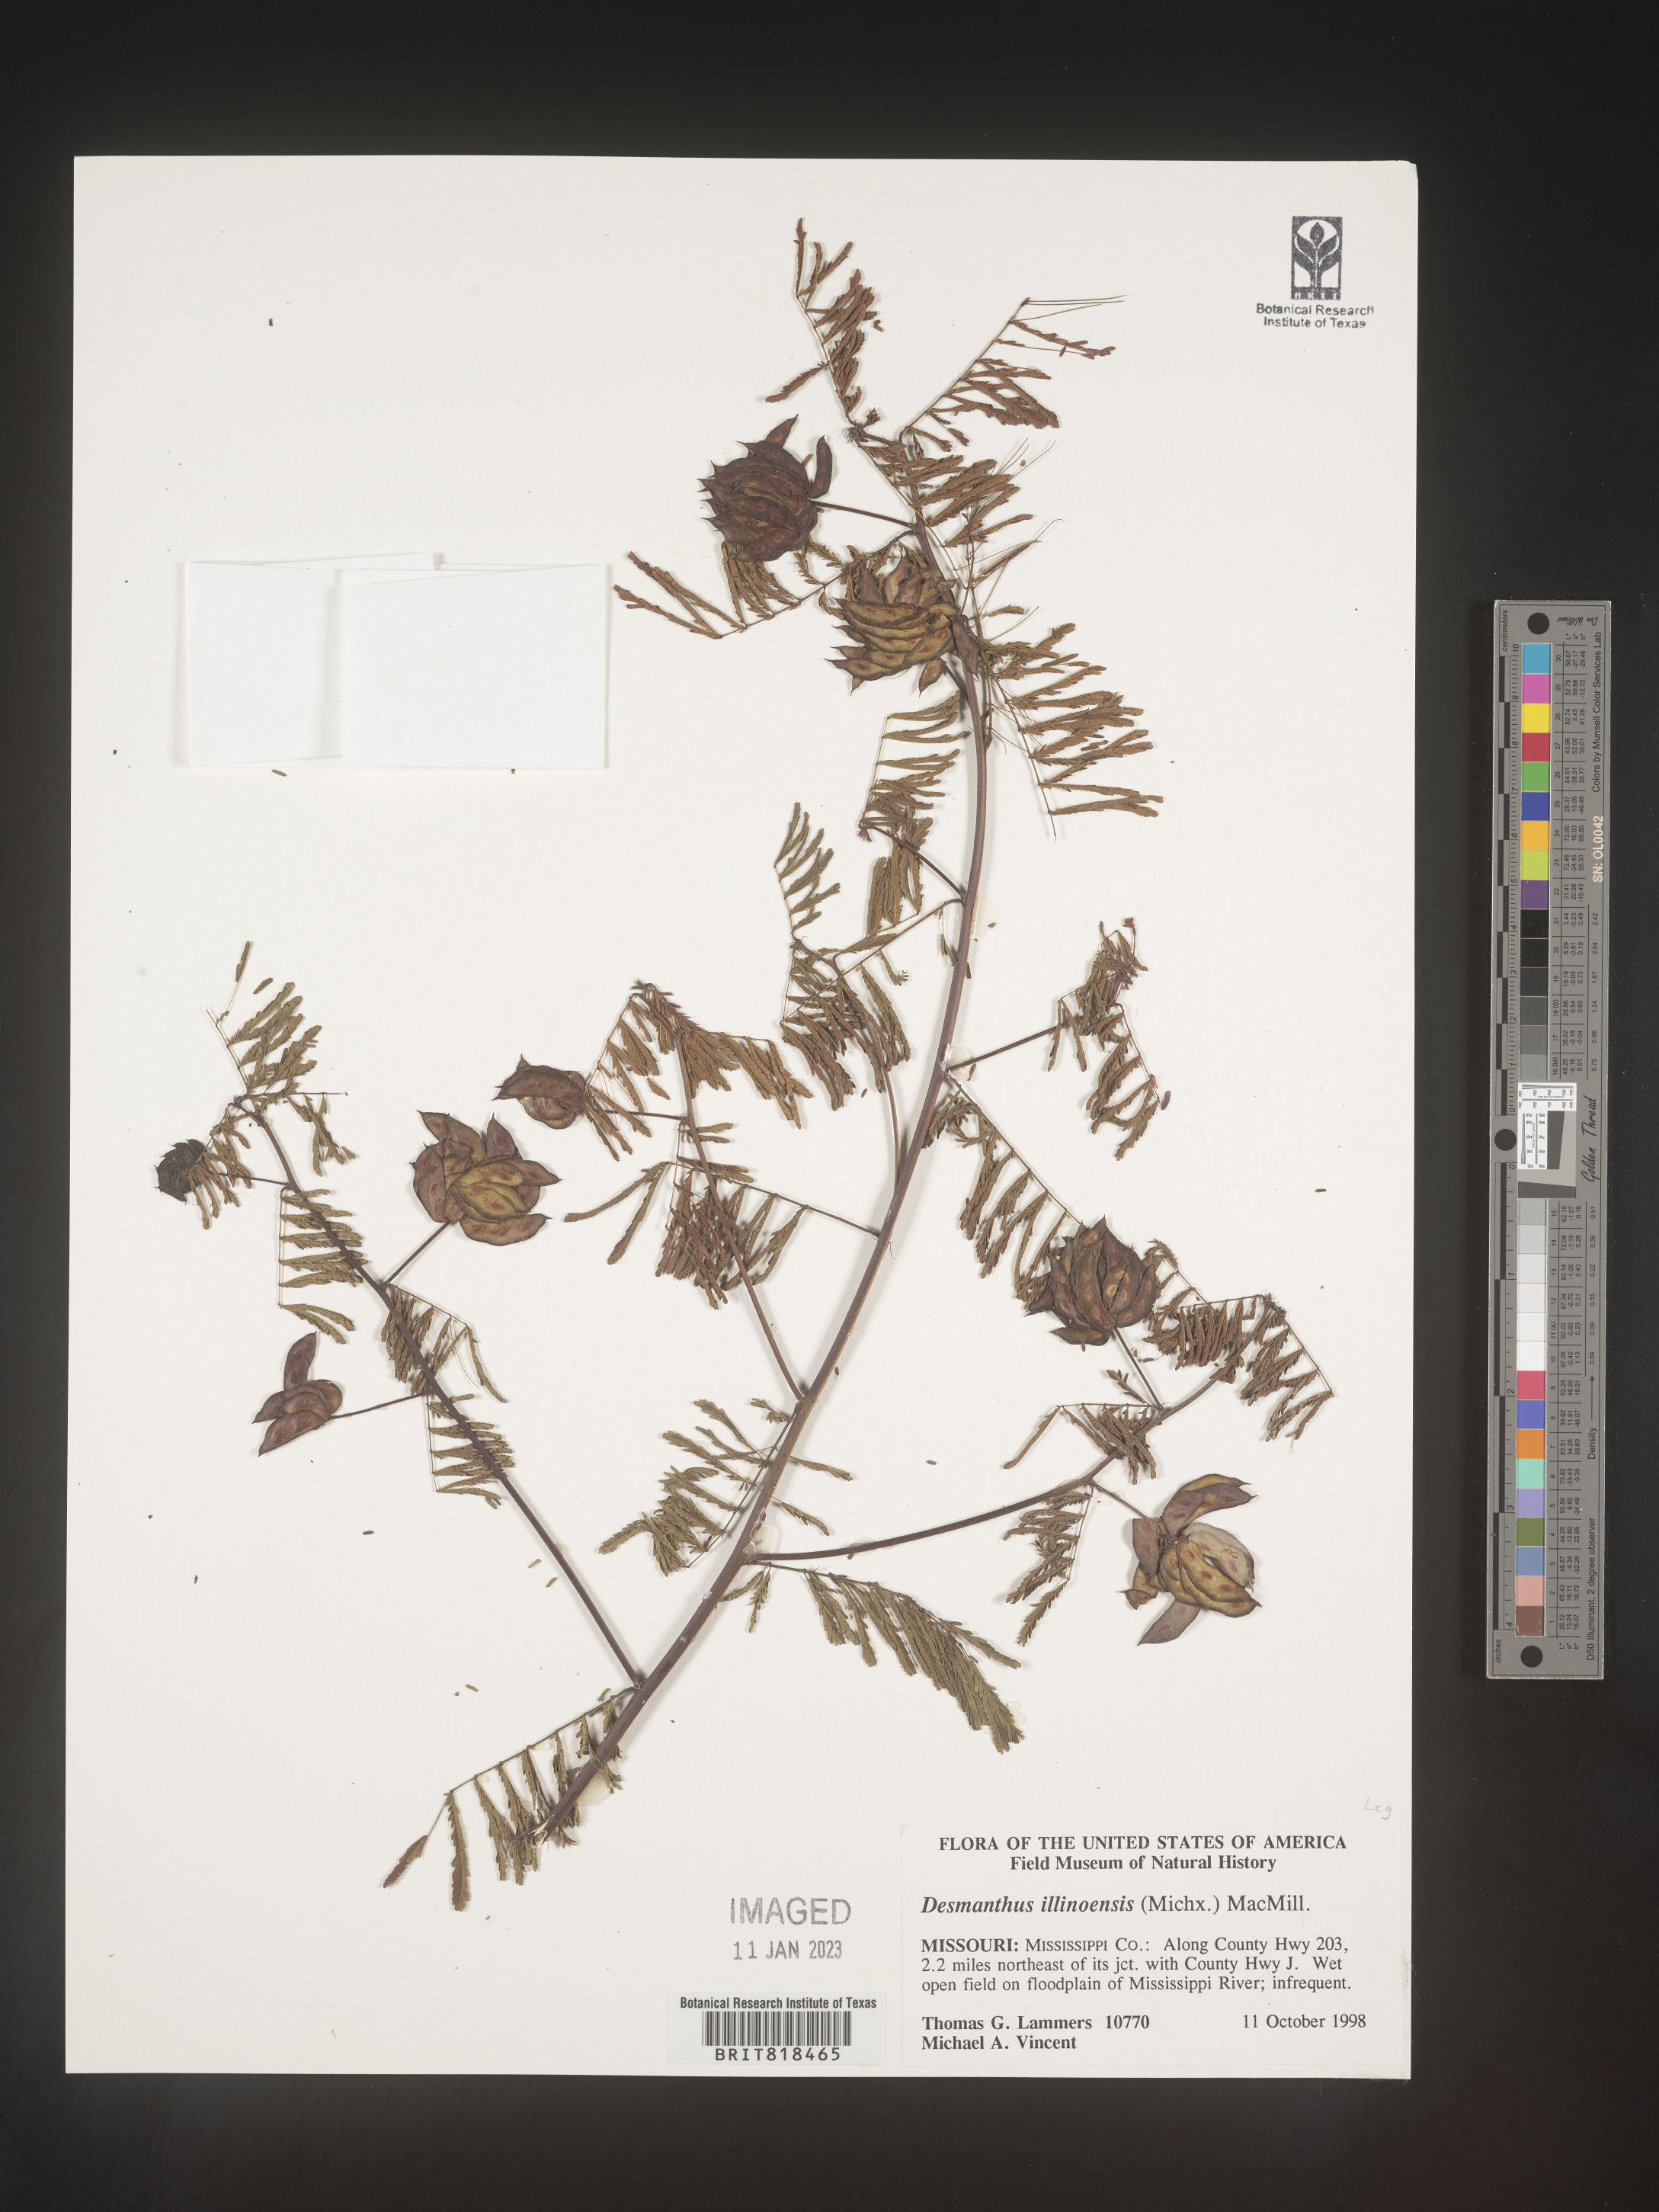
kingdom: Plantae
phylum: Tracheophyta
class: Magnoliopsida
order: Fabales
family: Fabaceae
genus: Desmanthus
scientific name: Desmanthus illinoensis
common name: Illinois bundle-flower
